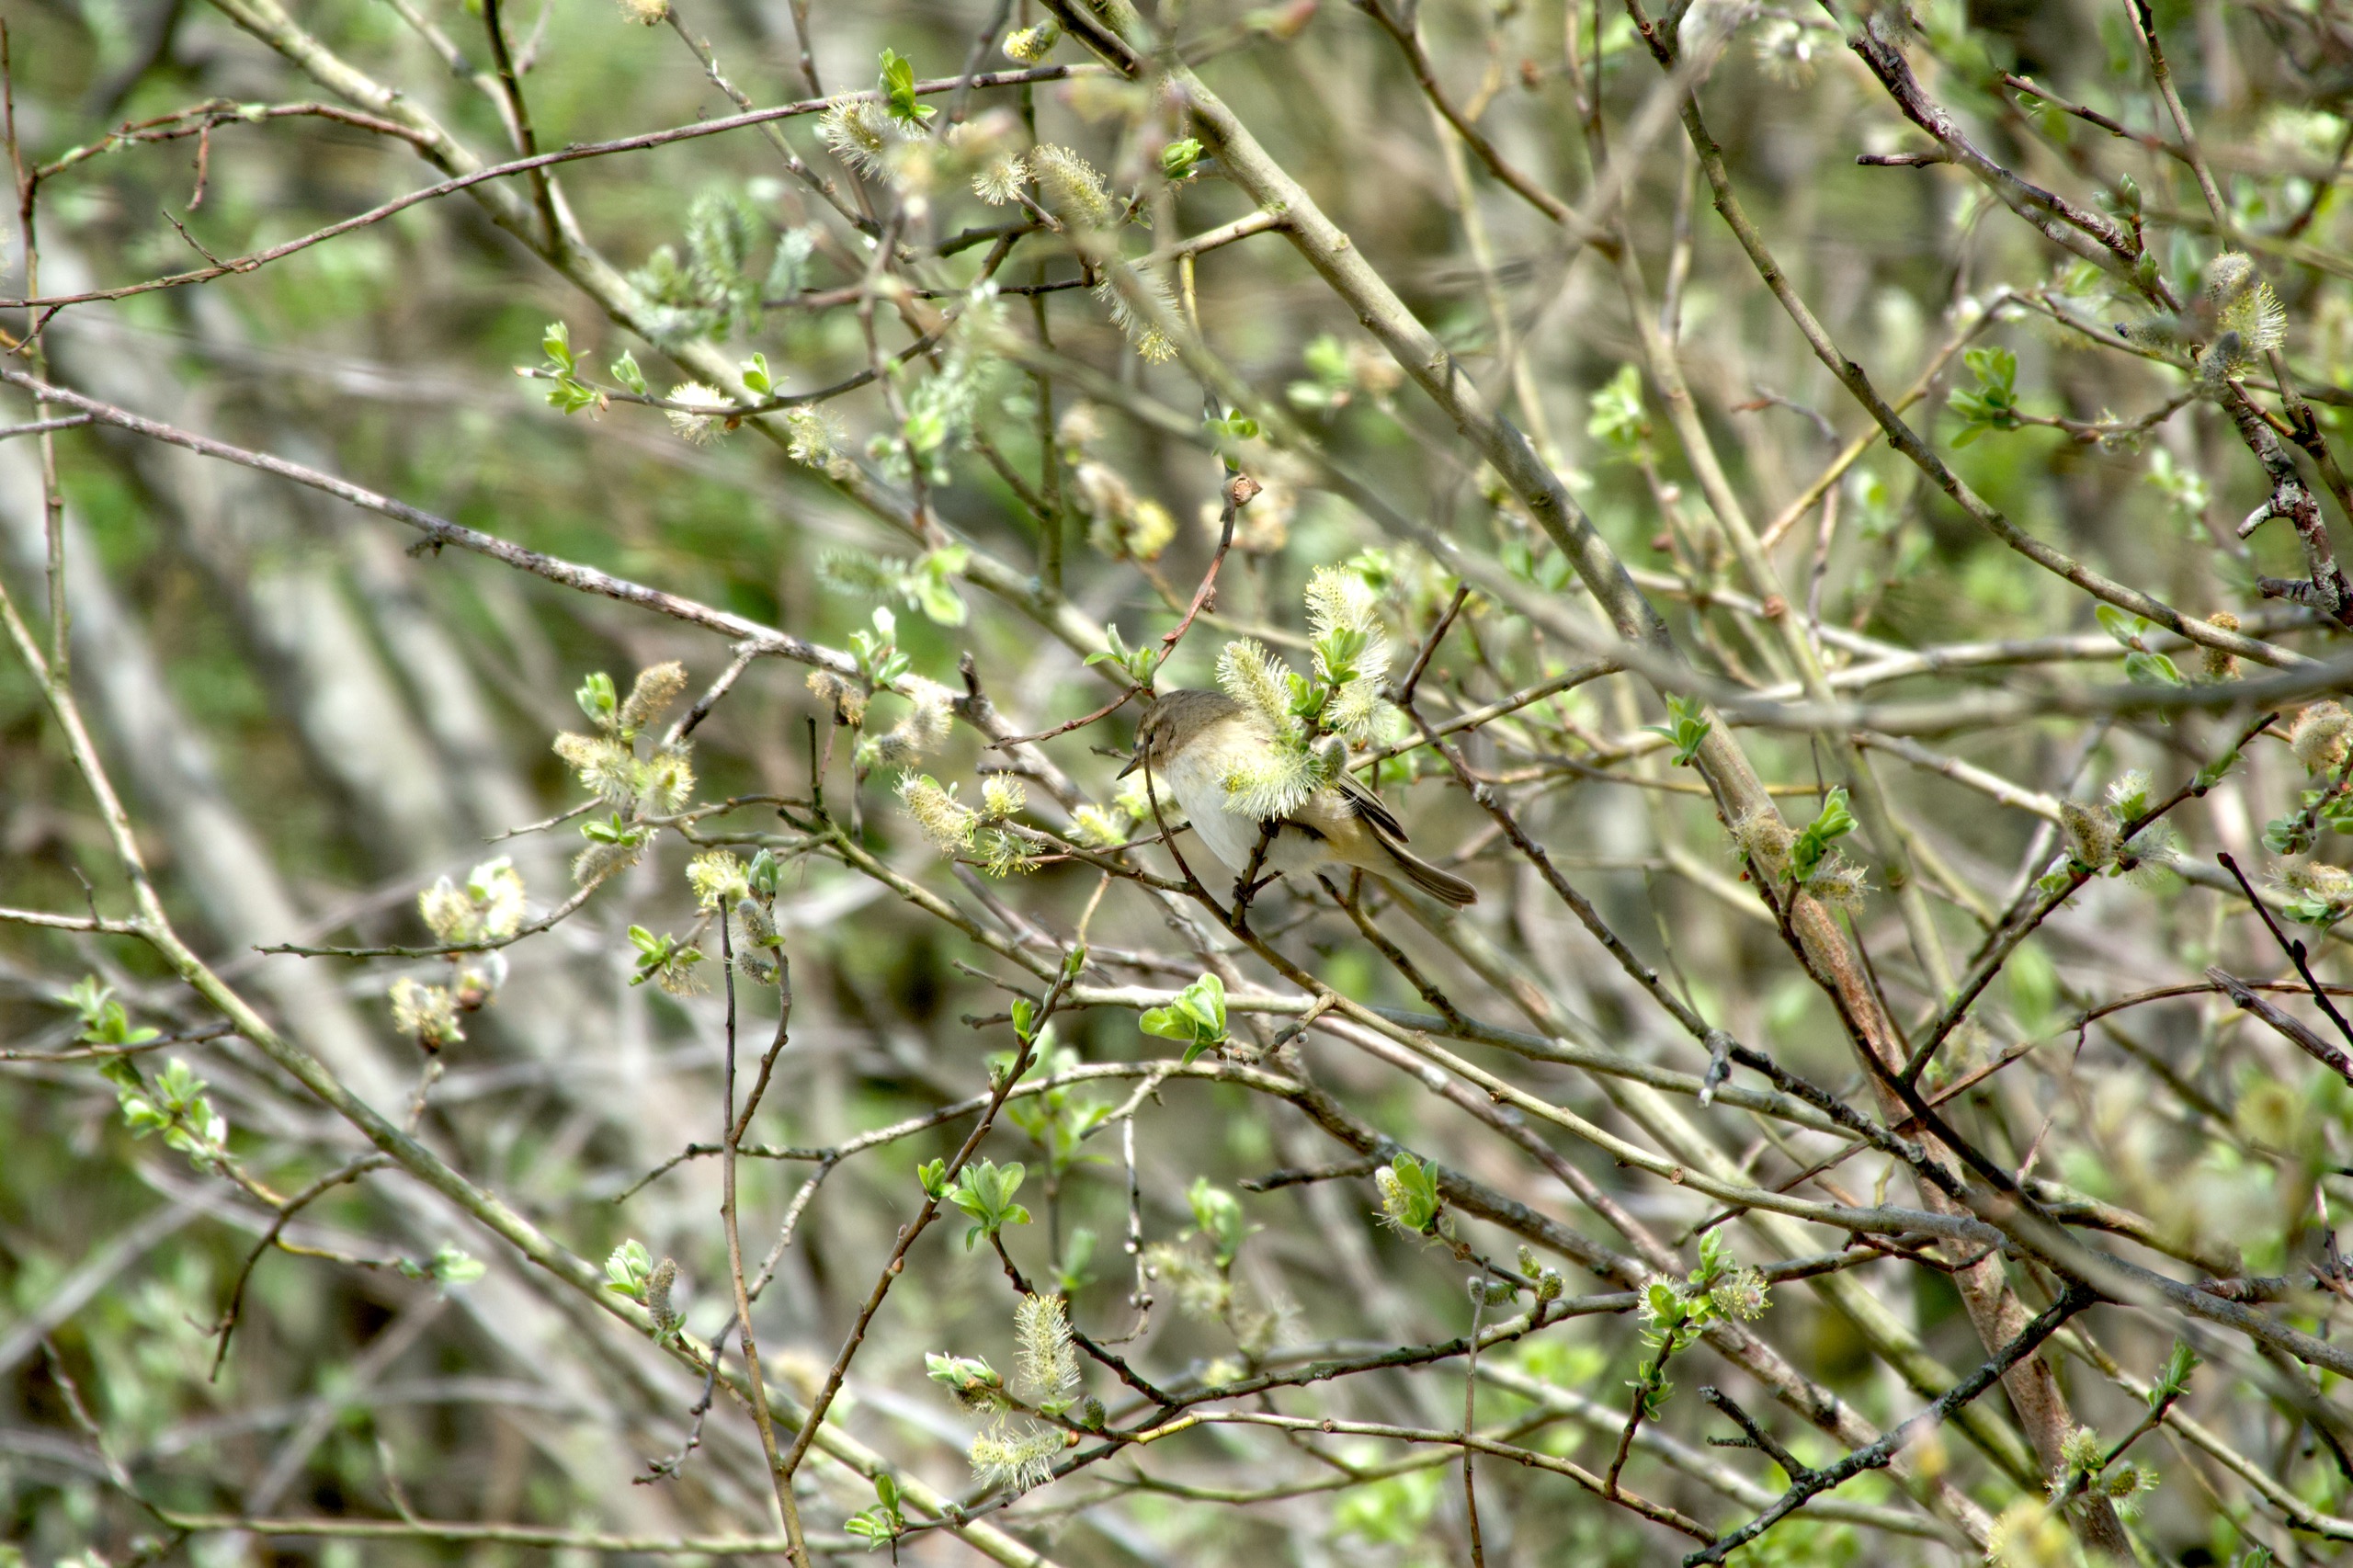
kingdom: Animalia
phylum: Chordata
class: Aves
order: Passeriformes
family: Phylloscopidae
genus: Phylloscopus
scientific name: Phylloscopus collybita
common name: Gransanger
